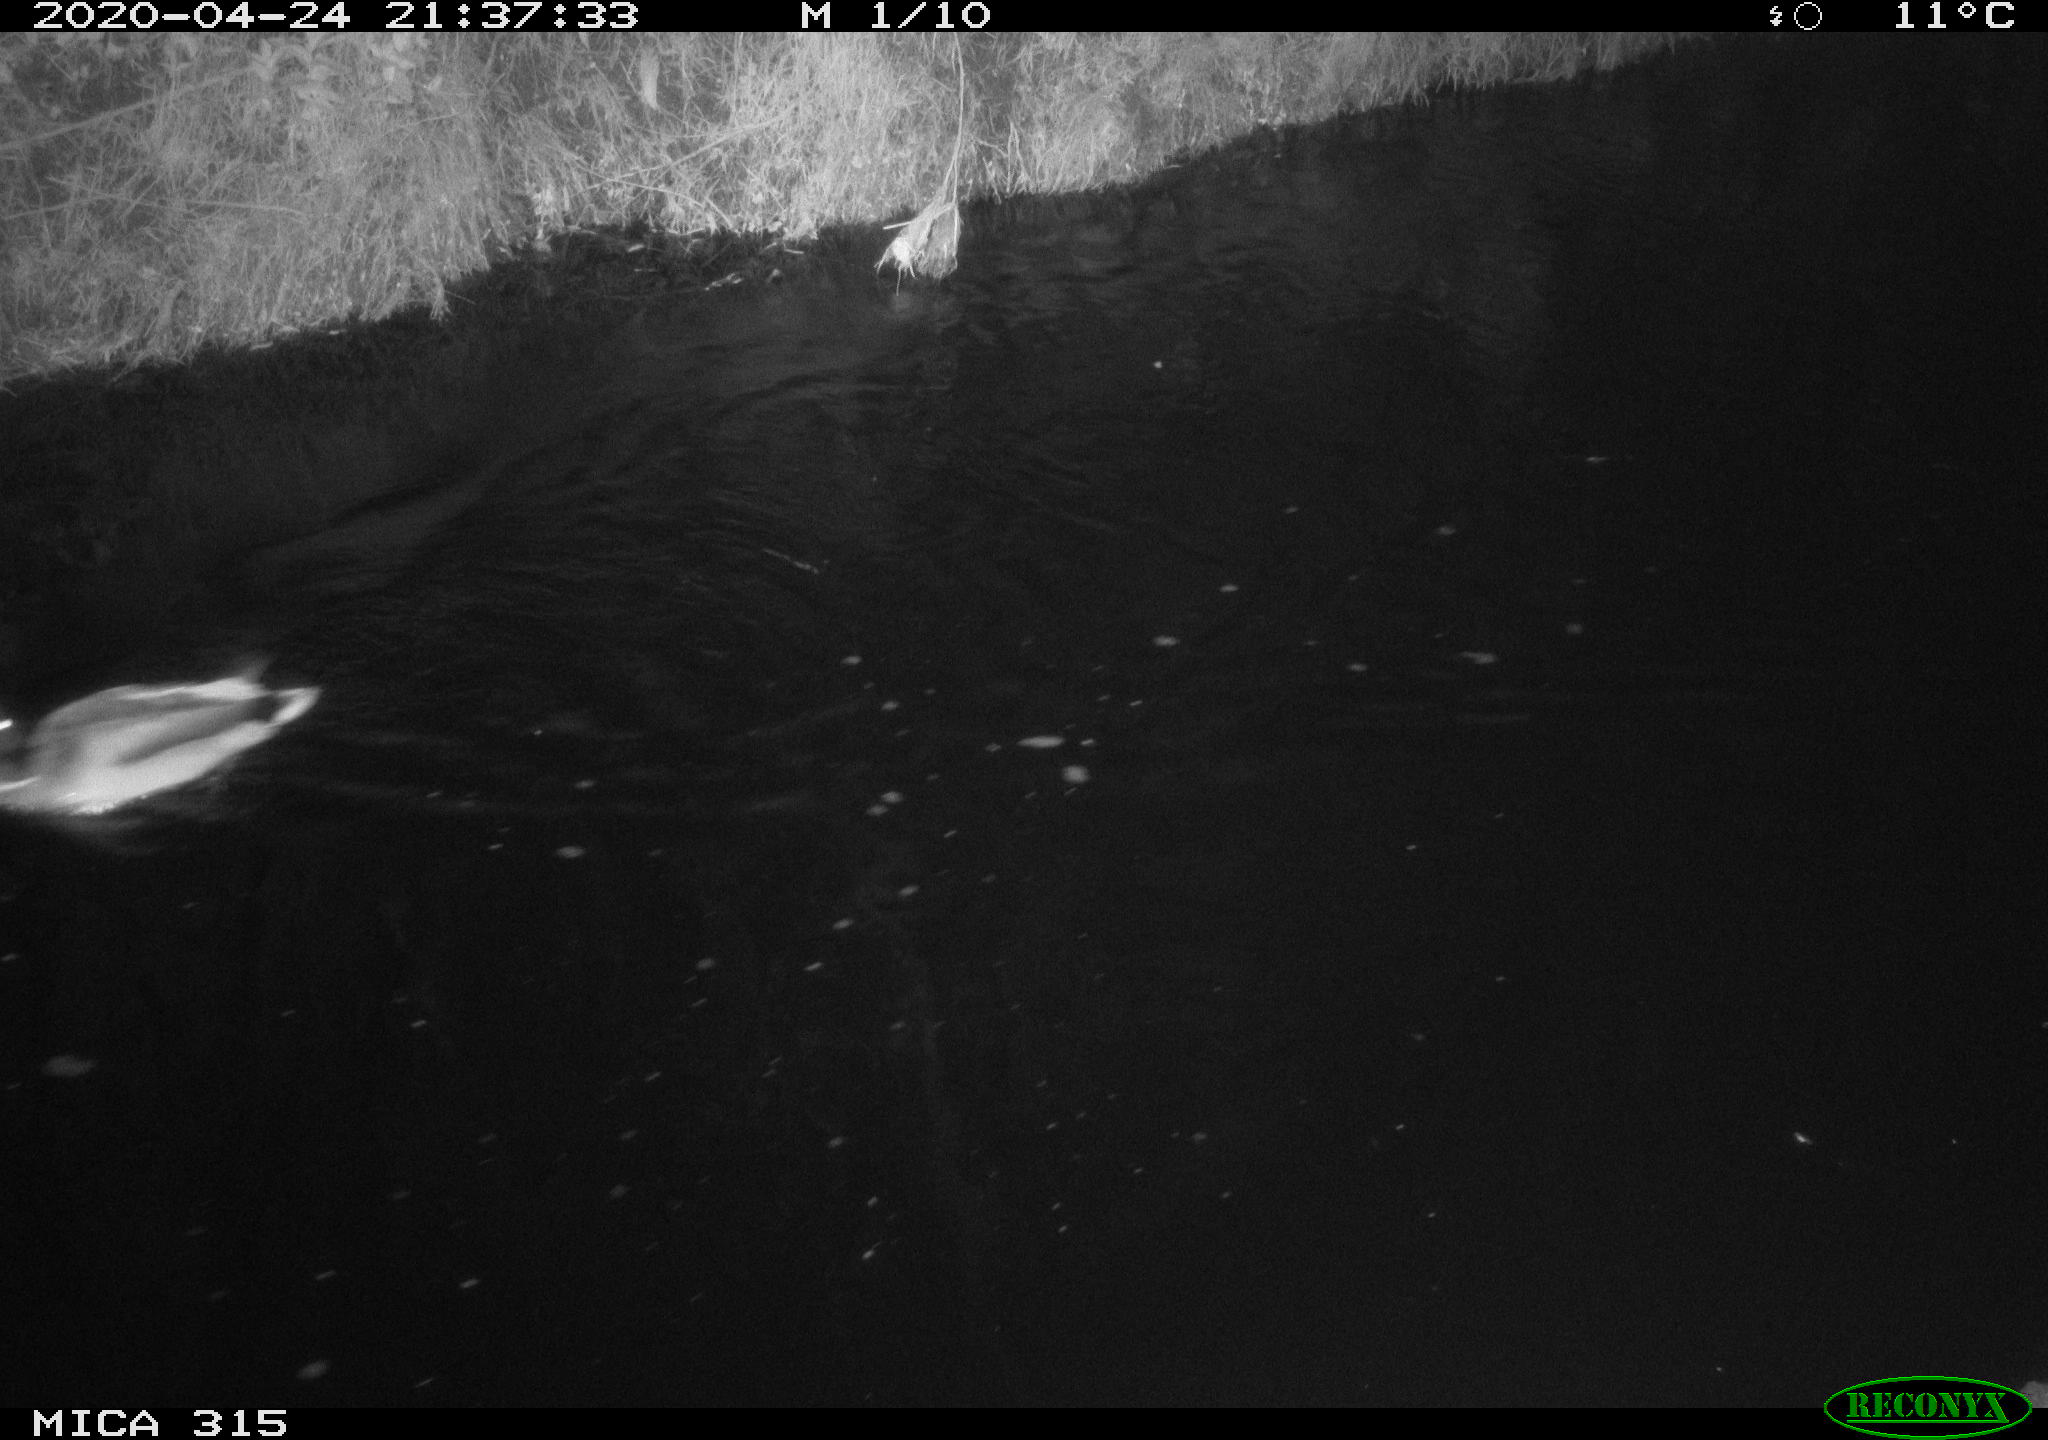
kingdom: Animalia
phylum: Chordata
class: Aves
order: Anseriformes
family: Anatidae
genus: Anas
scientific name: Anas platyrhynchos
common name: Mallard
